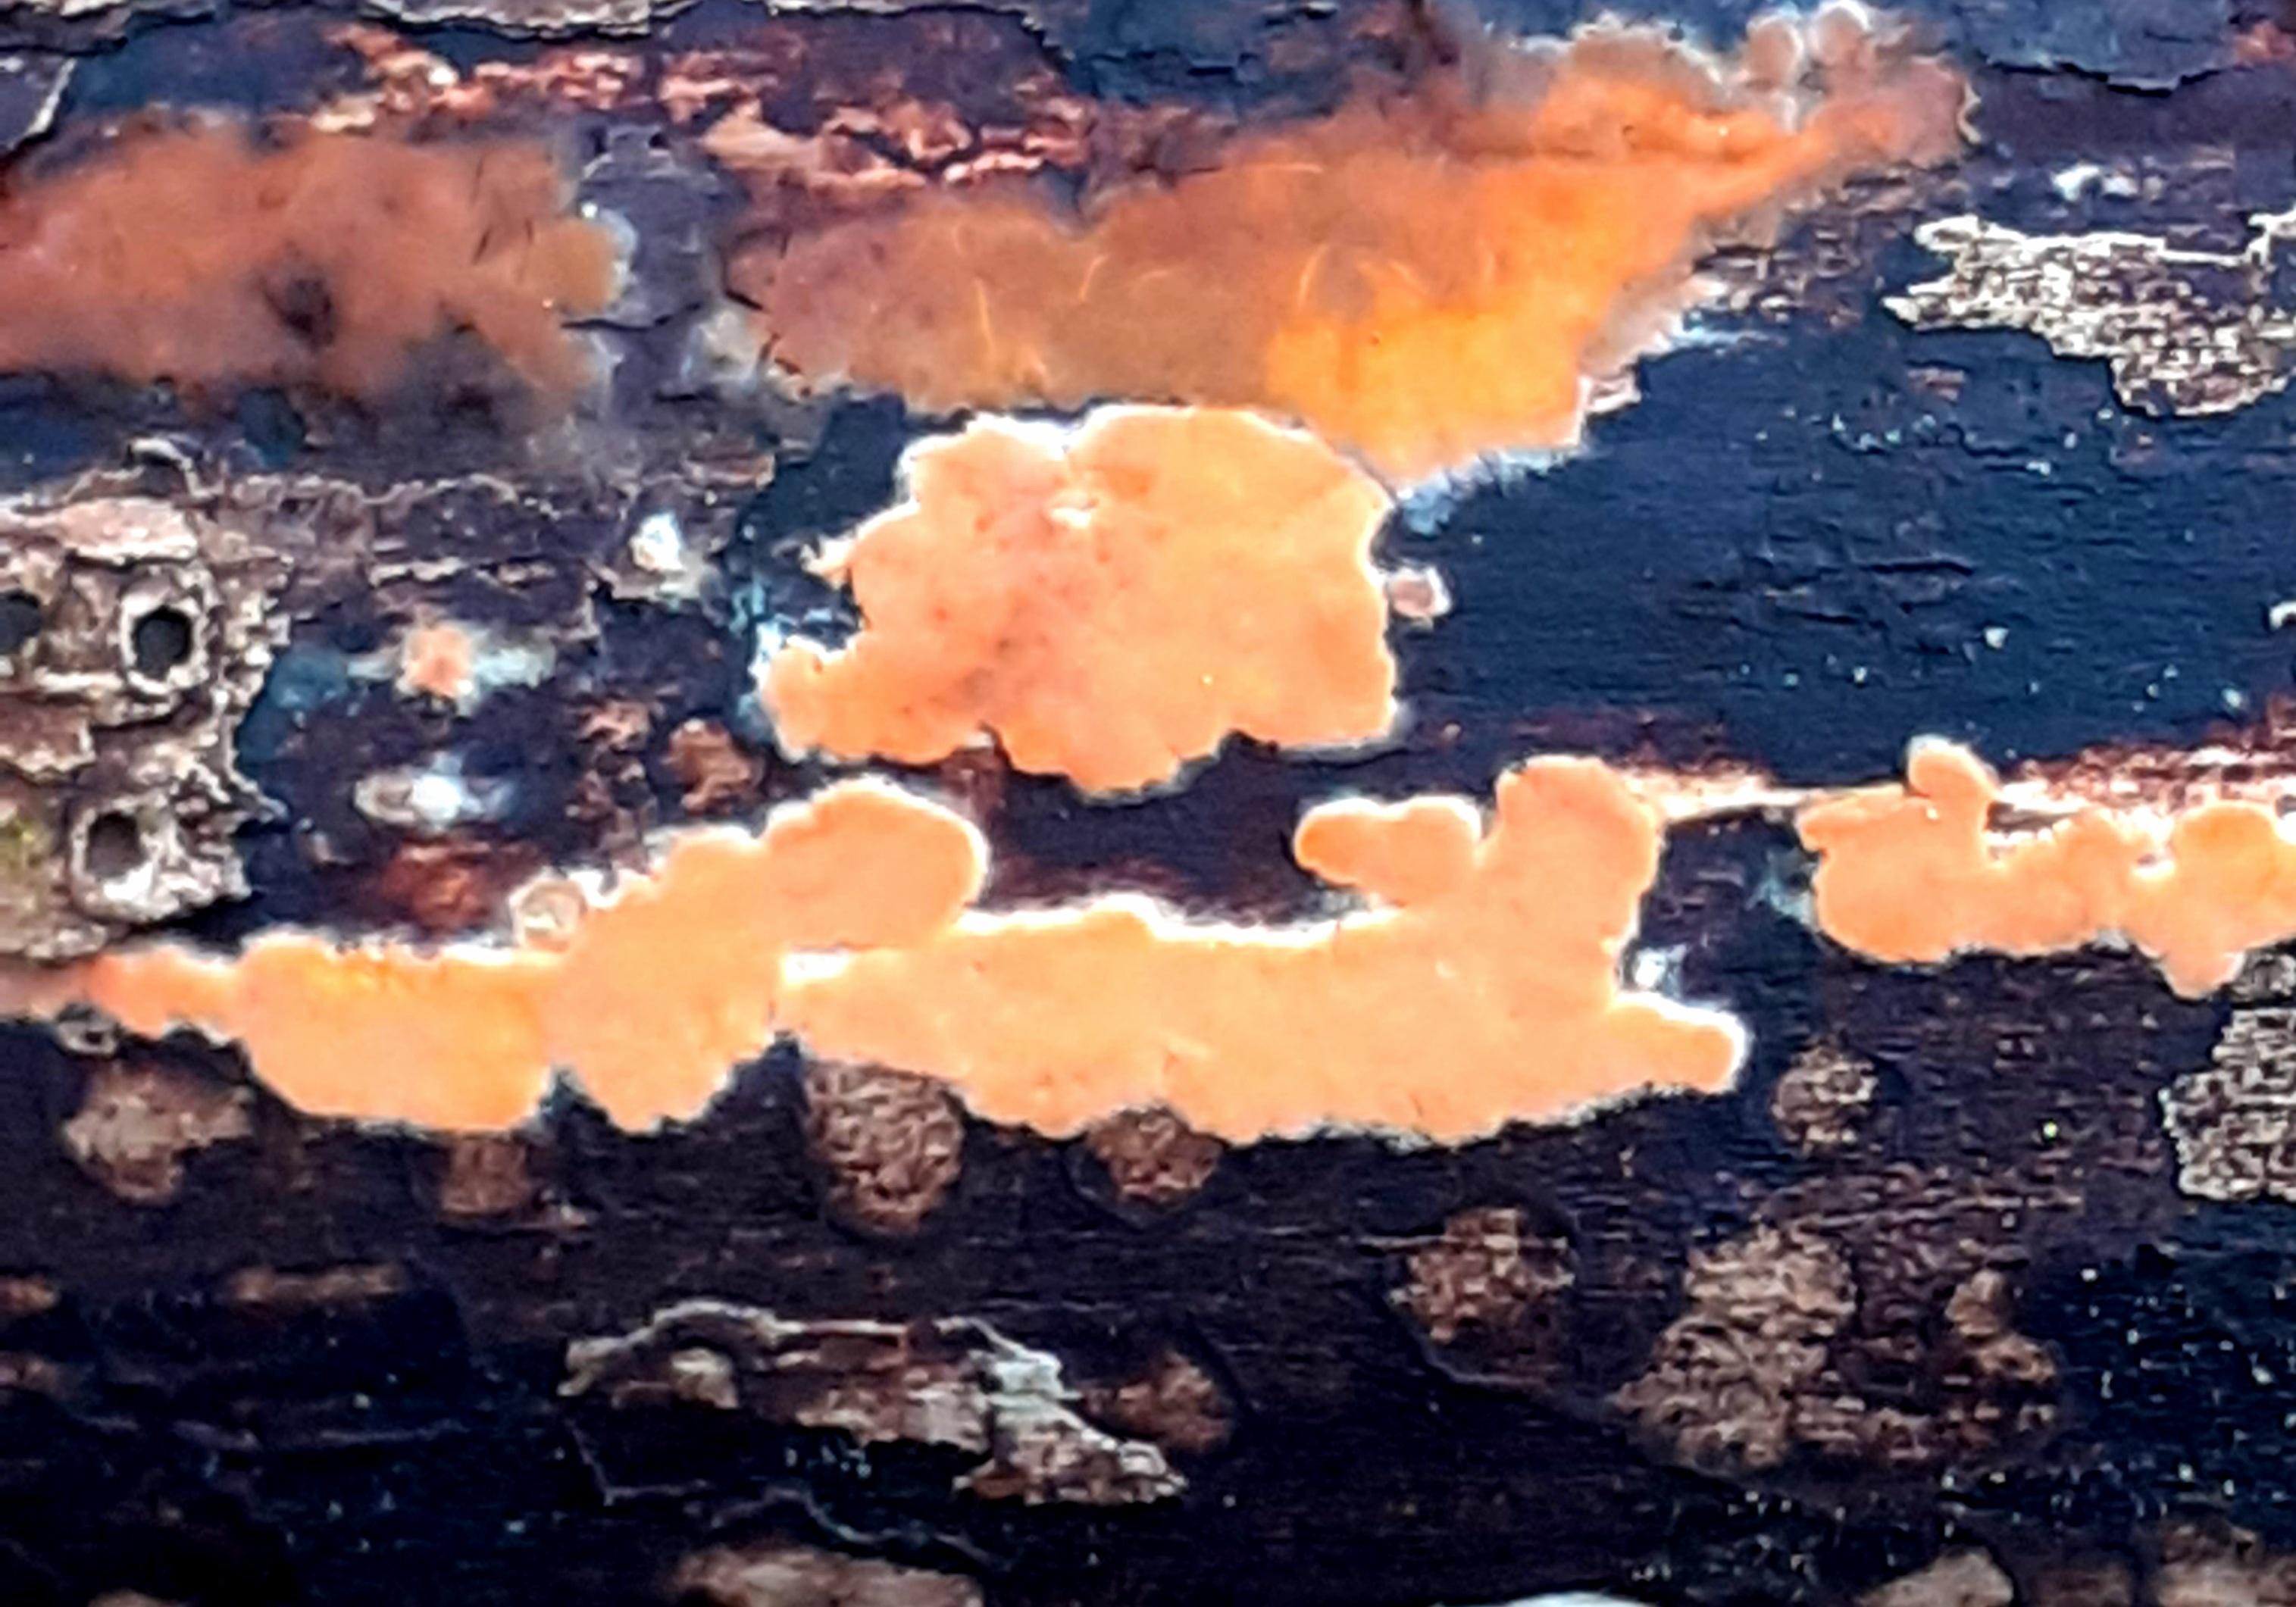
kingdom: Fungi
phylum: Basidiomycota
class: Agaricomycetes
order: Russulales
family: Peniophoraceae
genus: Peniophora
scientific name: Peniophora incarnata
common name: laksefarvet voksskind
